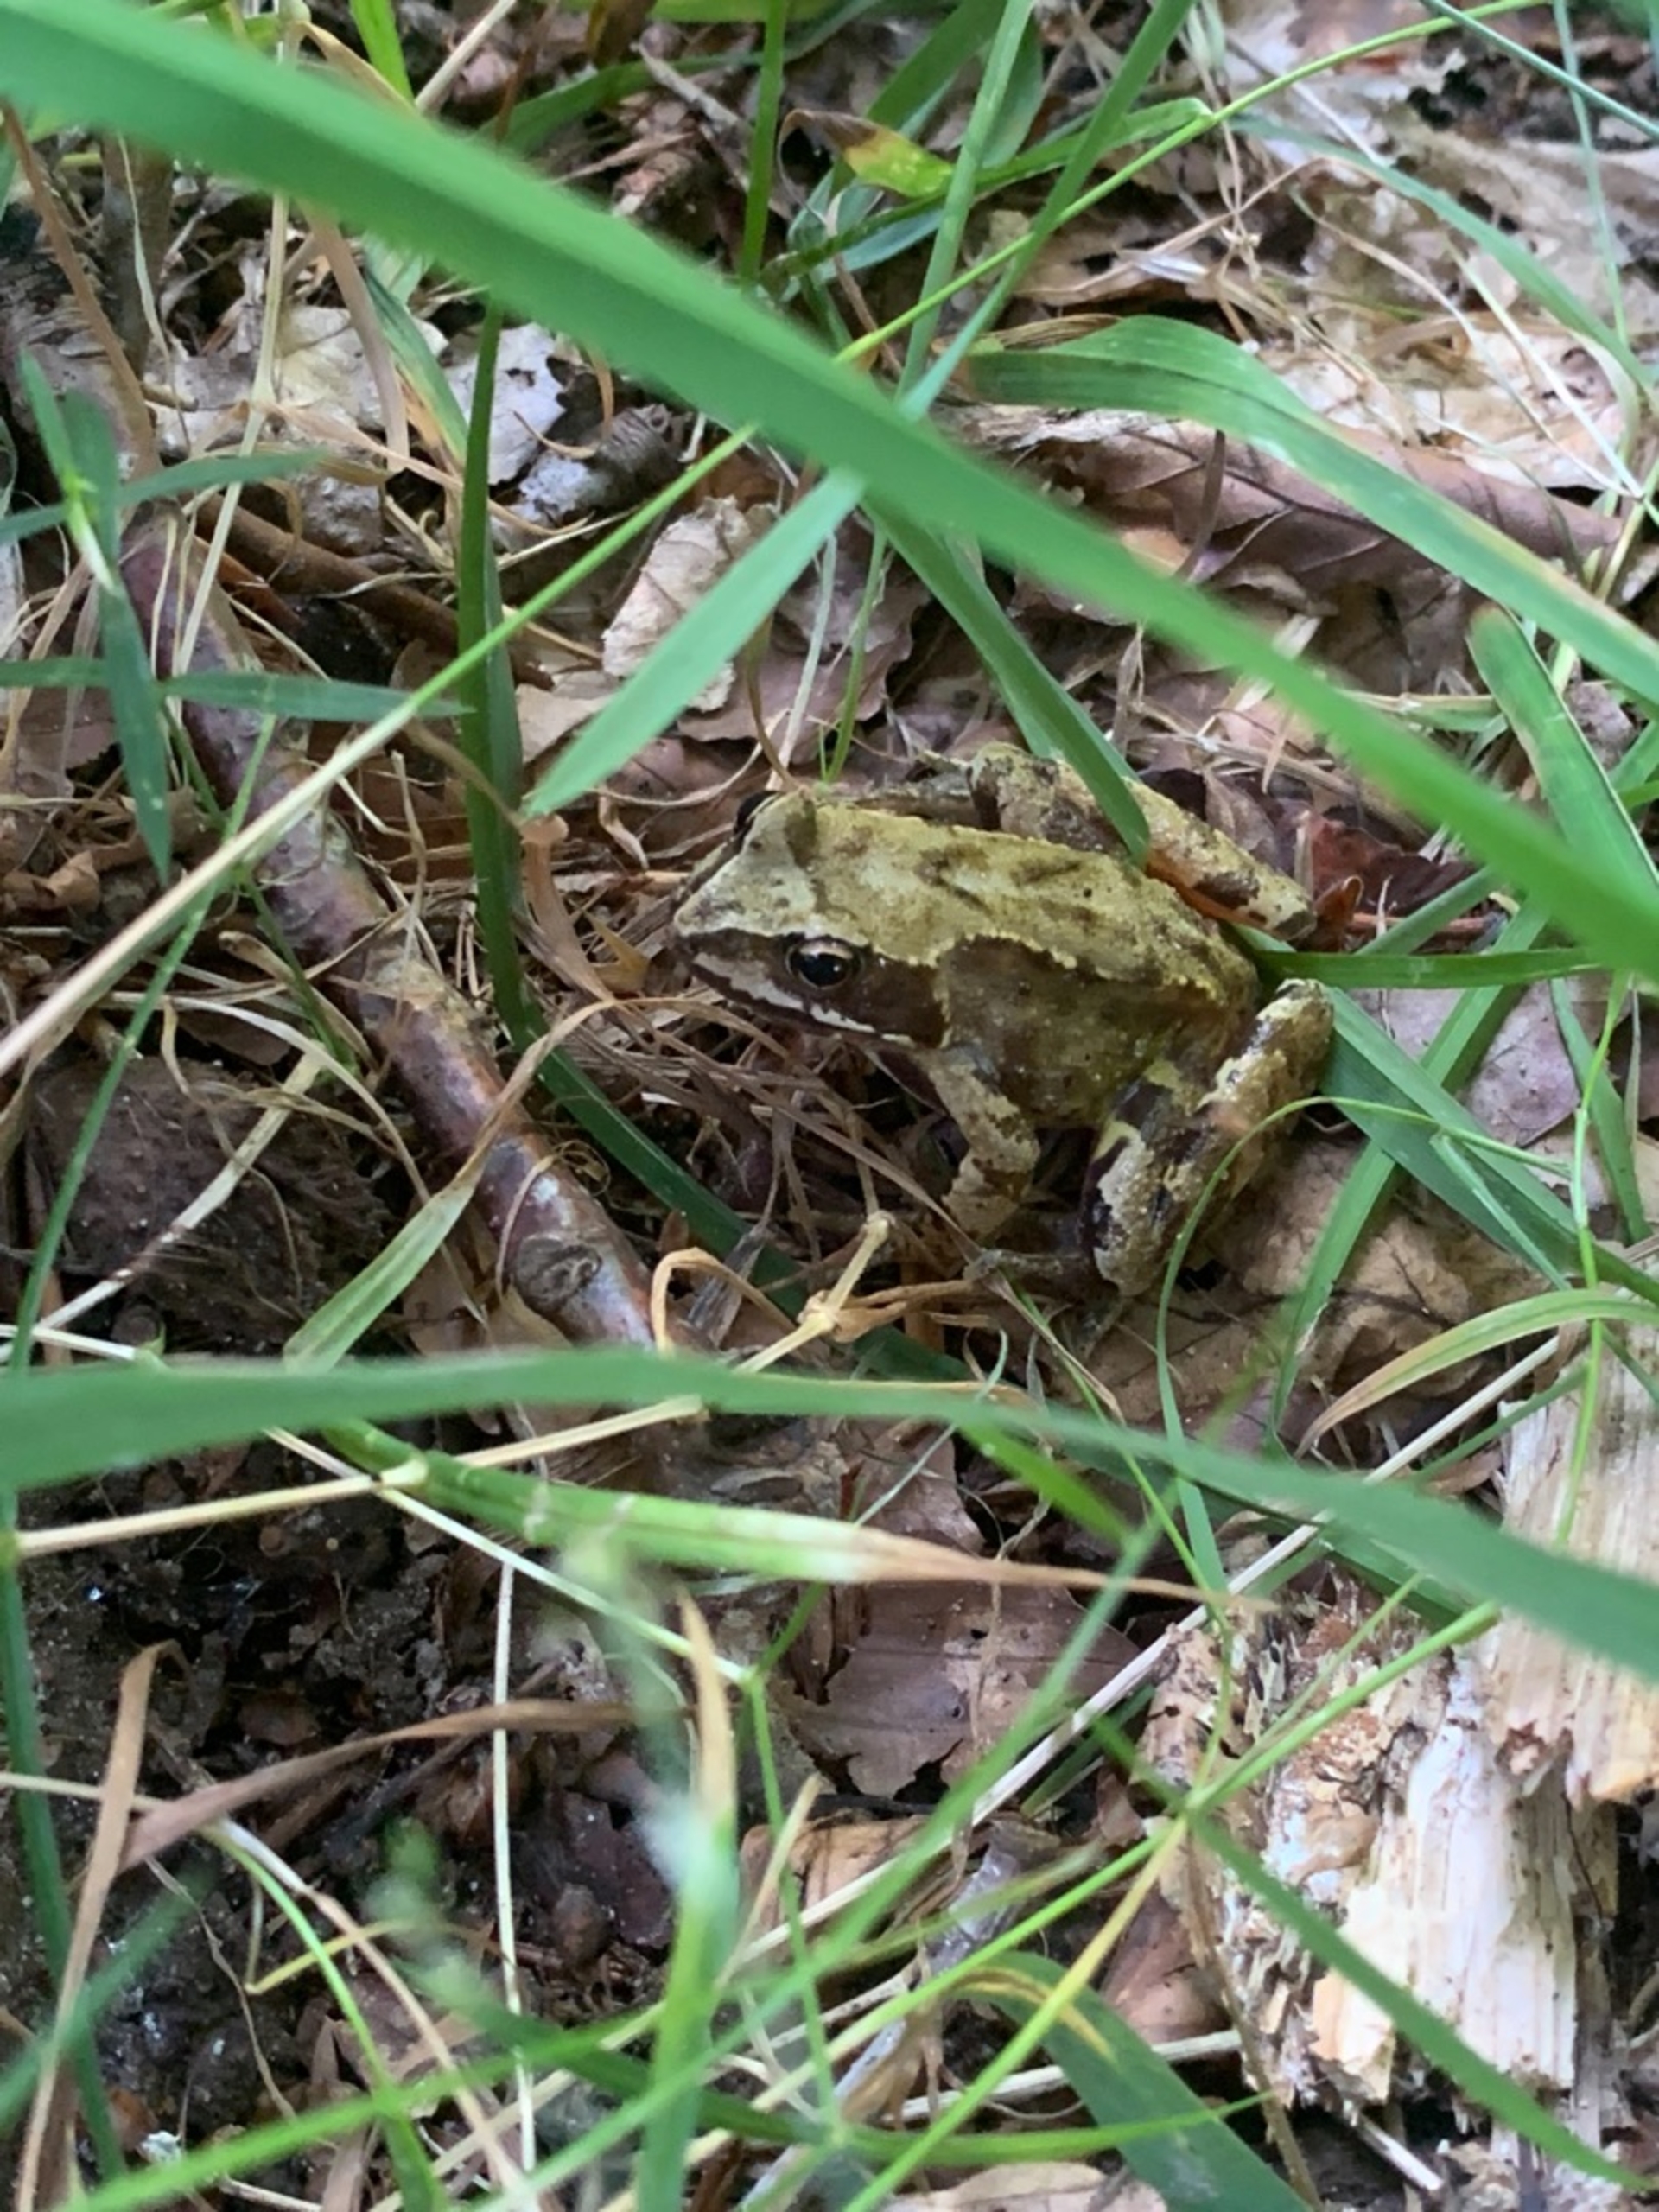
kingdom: Animalia
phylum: Chordata
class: Amphibia
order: Anura
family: Ranidae
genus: Rana
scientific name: Rana temporaria
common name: Butsnudet frø
